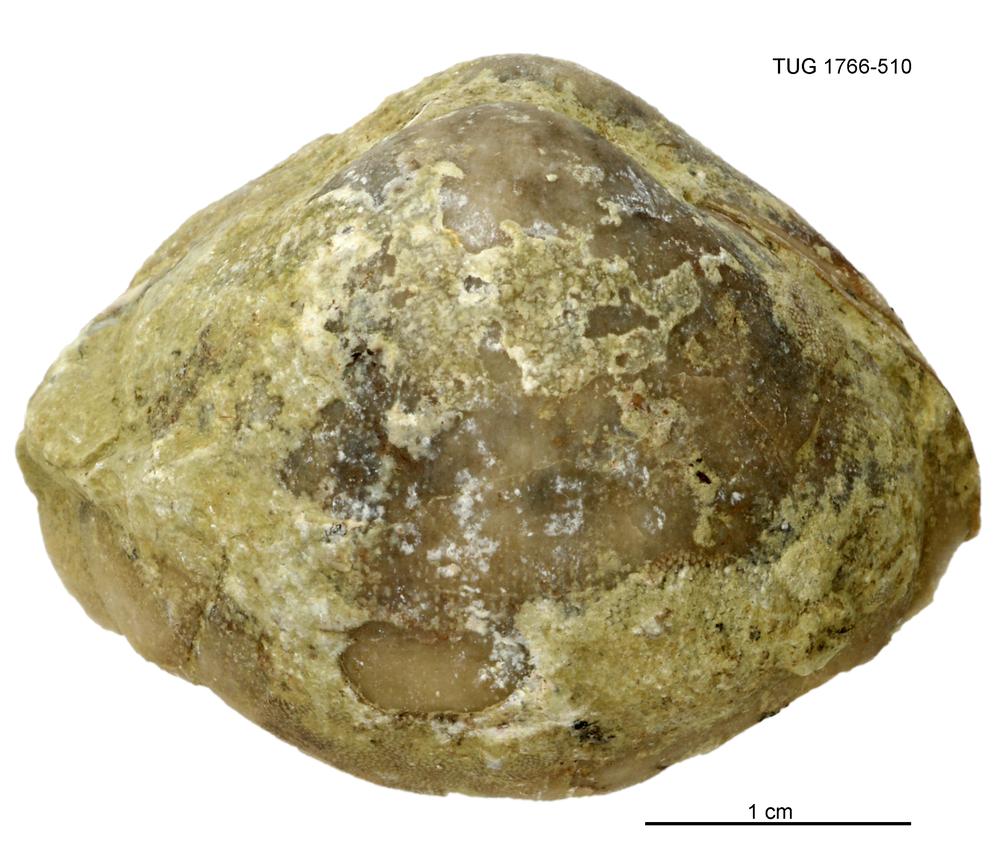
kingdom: Animalia
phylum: Brachiopoda
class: Rhynchonellata
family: Porambonitidae
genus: Porambonites
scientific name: Porambonites
